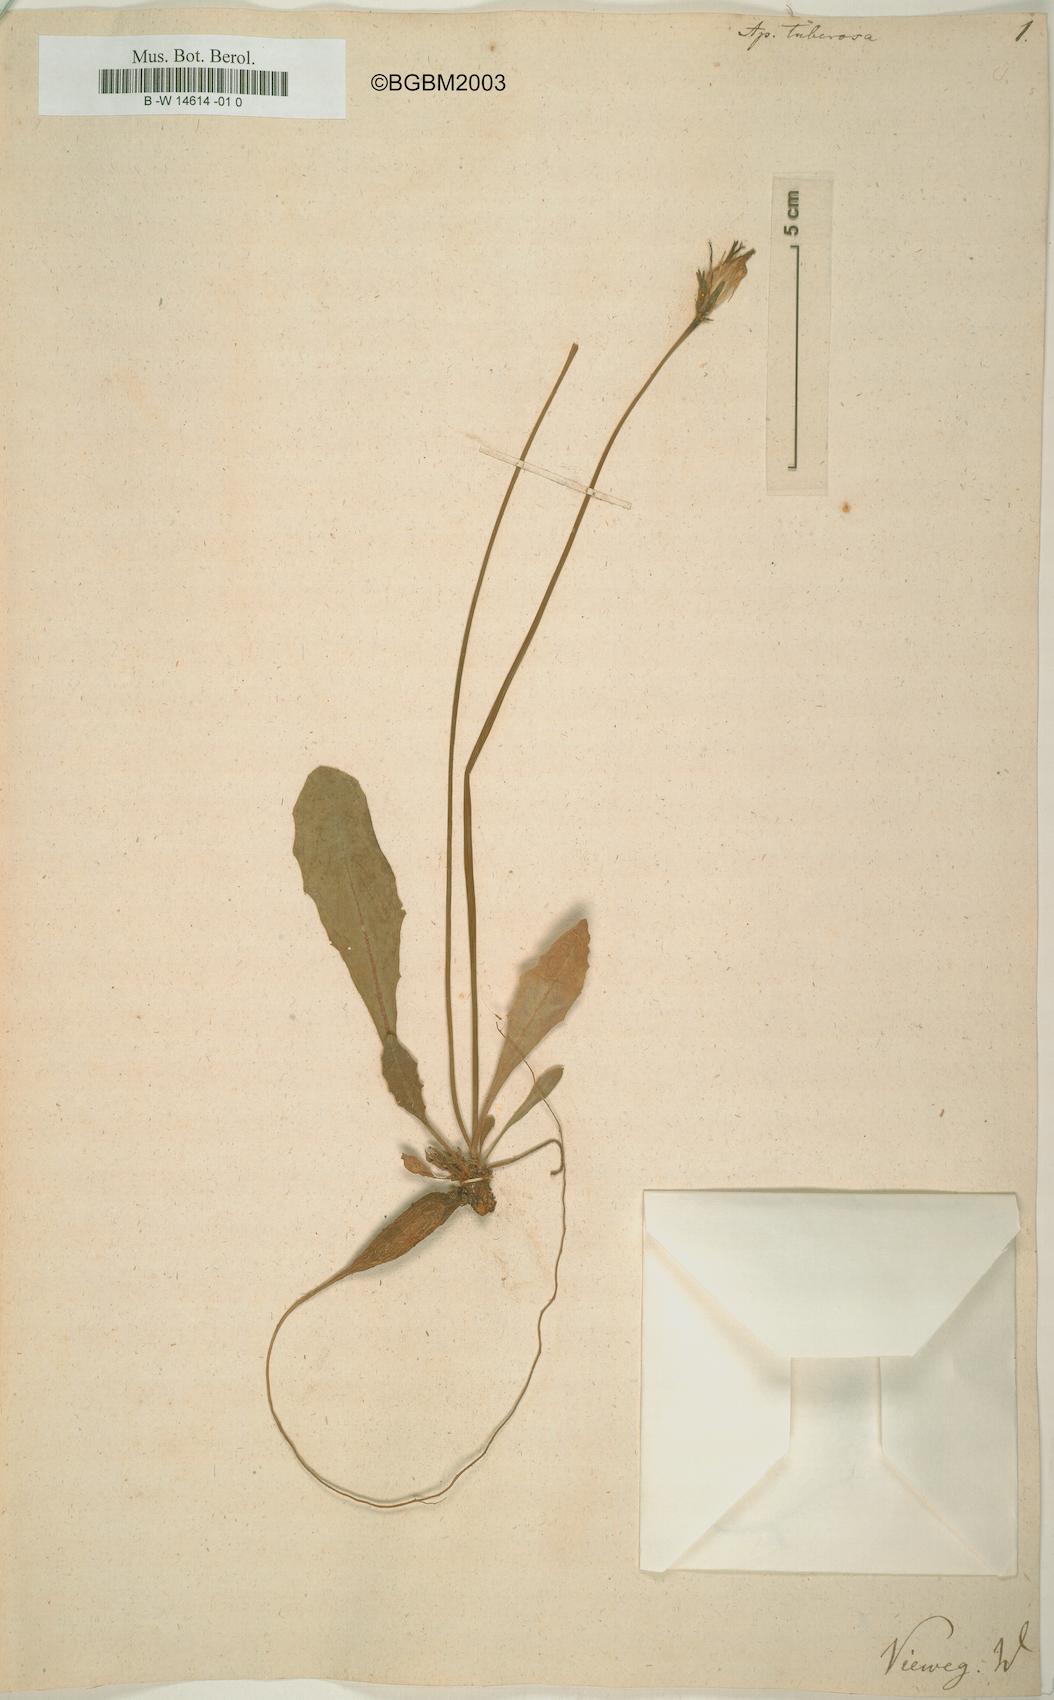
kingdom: Plantae
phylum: Tracheophyta
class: Magnoliopsida
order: Asterales
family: Asteraceae
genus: Thrincia
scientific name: Thrincia tuberosa
